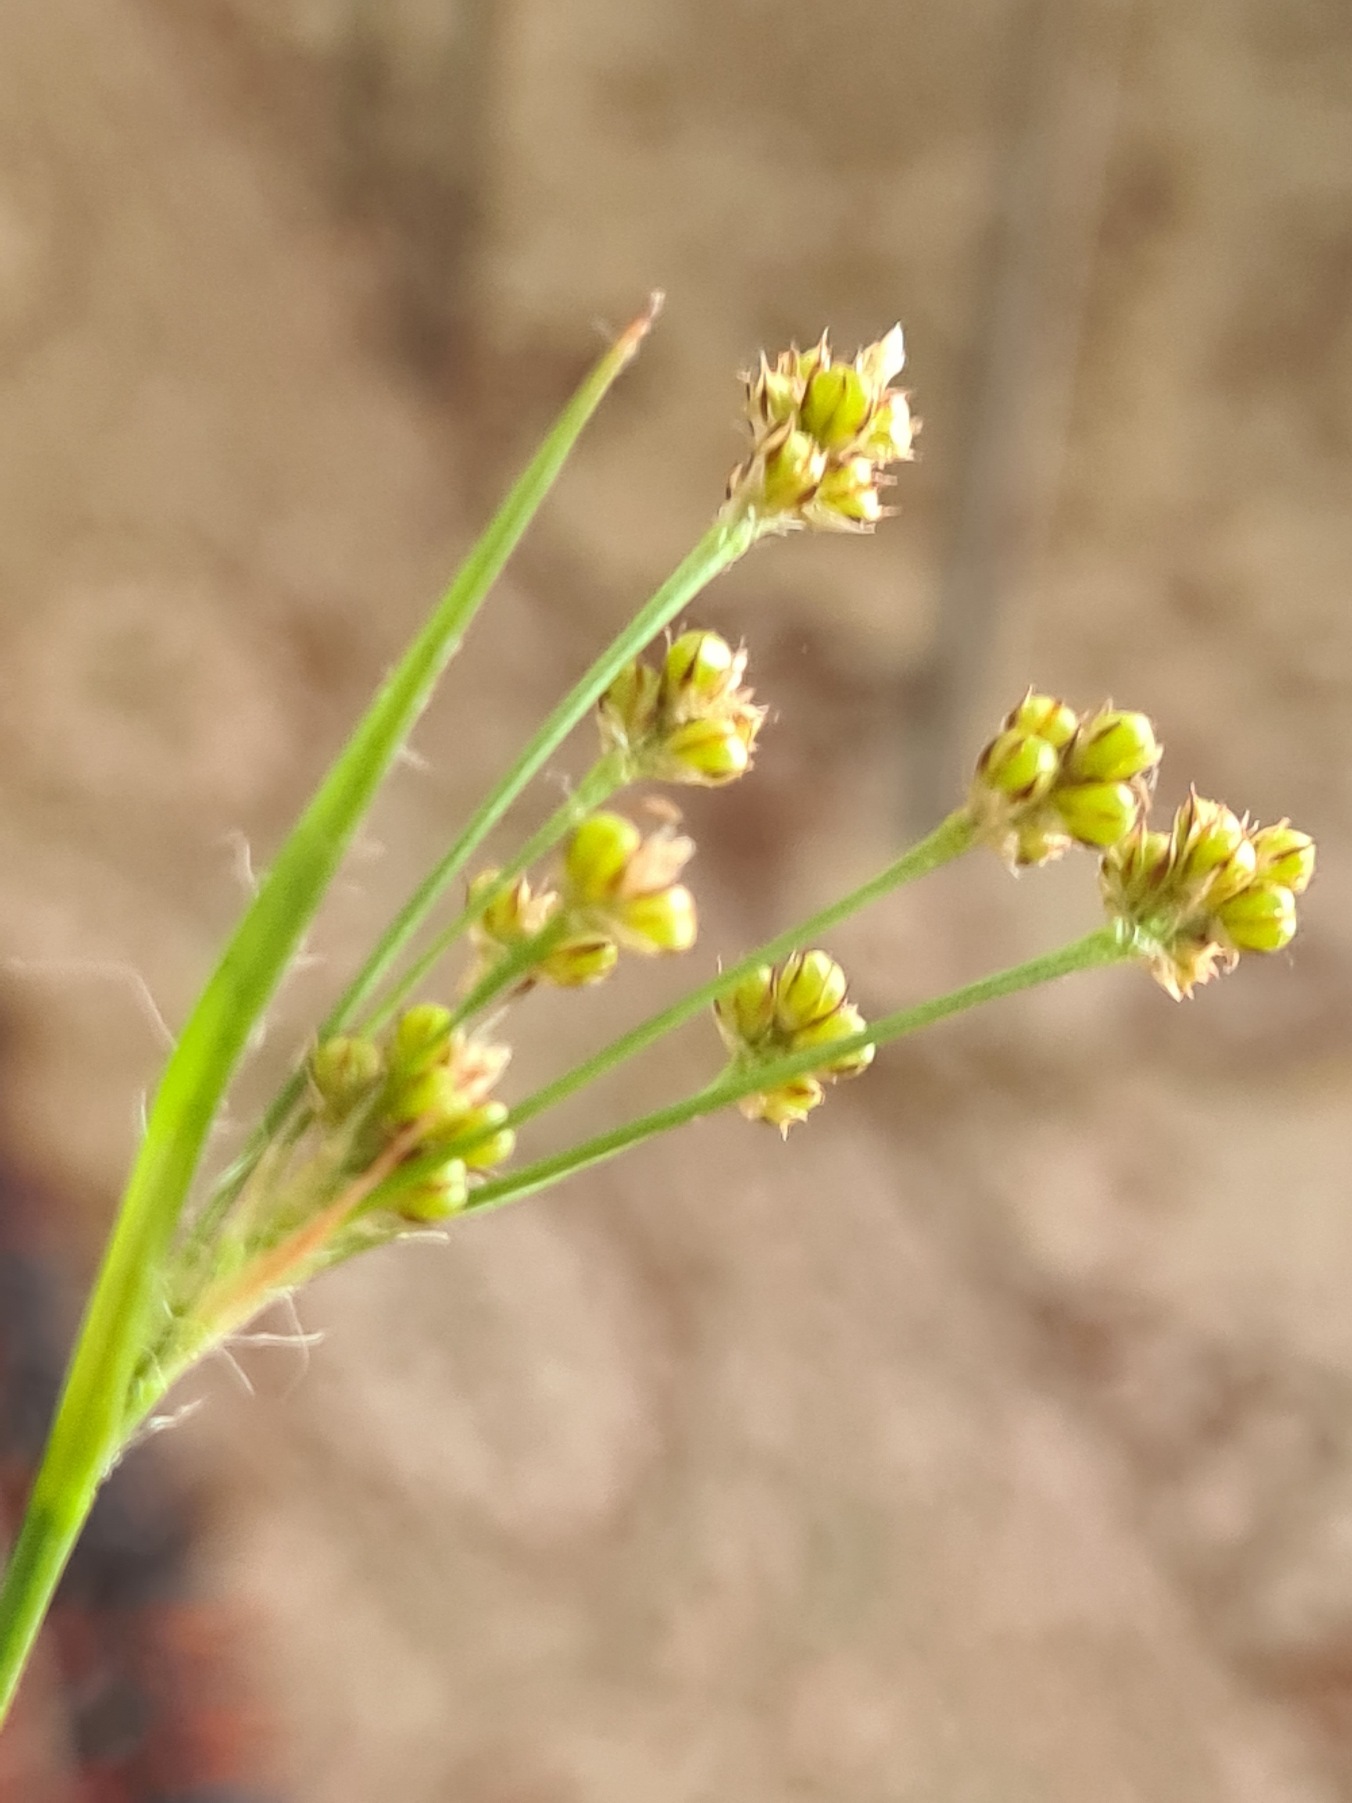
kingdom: Plantae
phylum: Tracheophyta
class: Liliopsida
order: Poales
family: Juncaceae
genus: Luzula
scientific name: Luzula multiflora
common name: Mangeblomstret frytle
